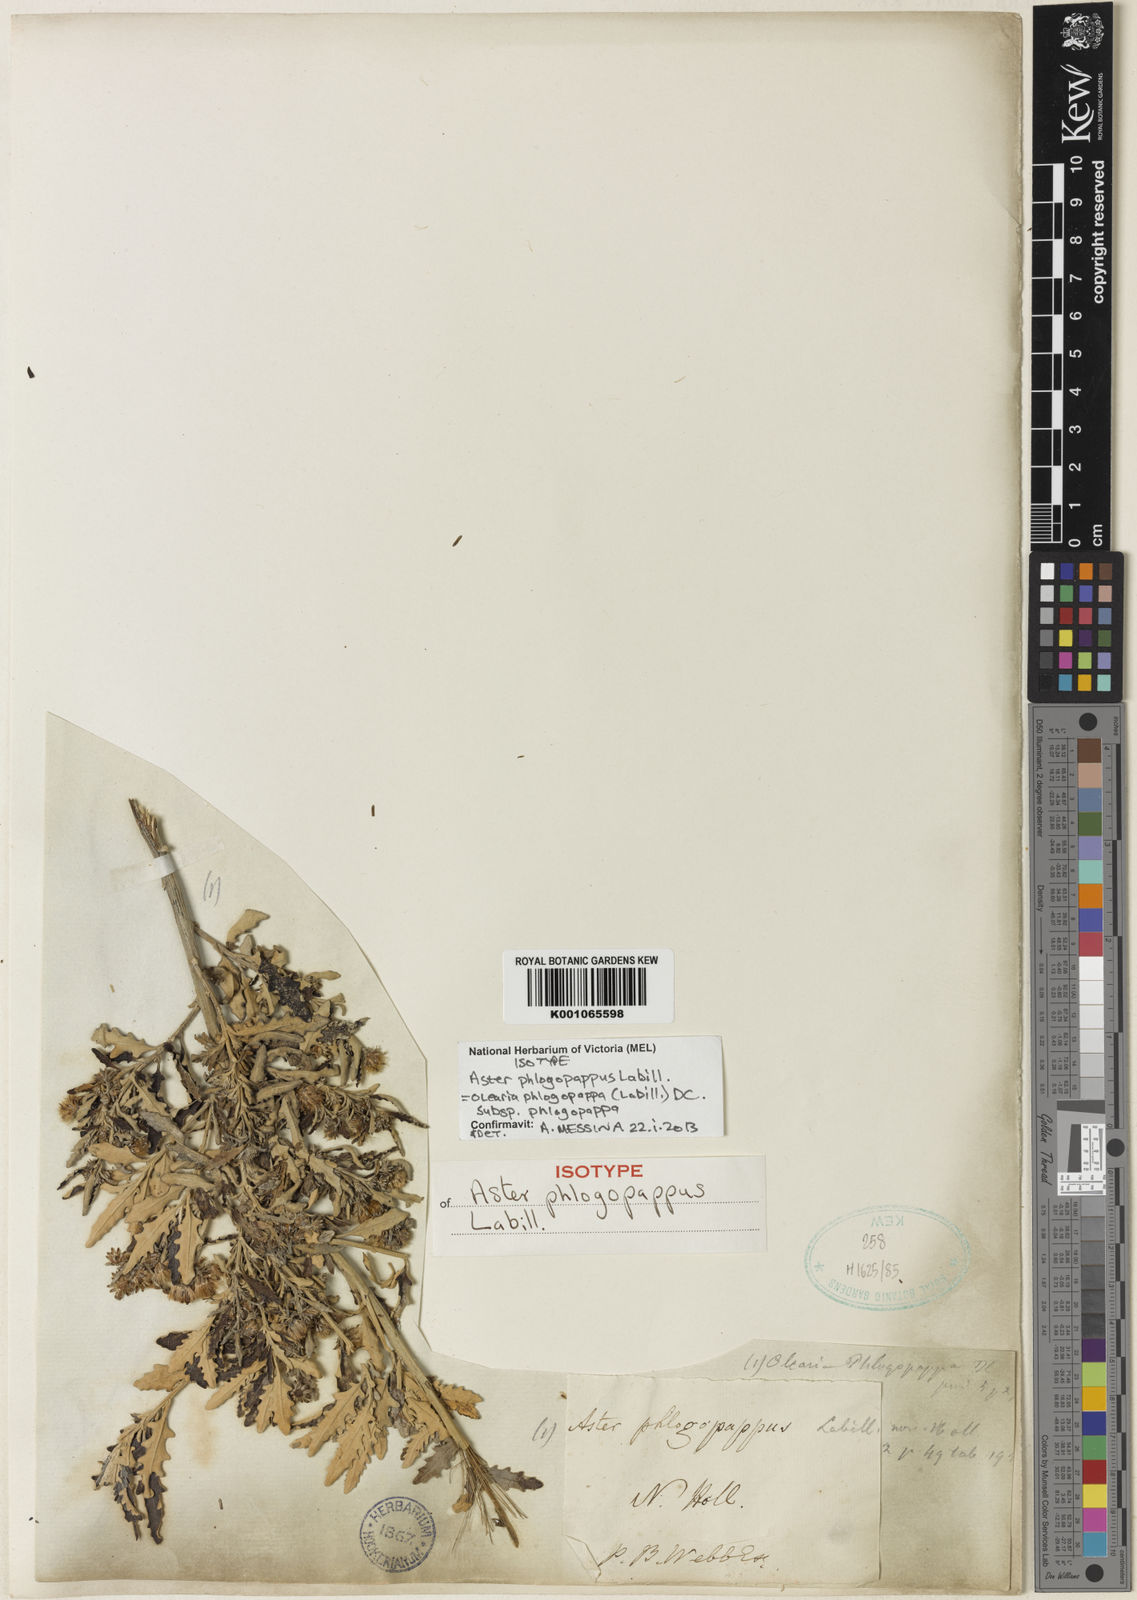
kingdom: Plantae
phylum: Tracheophyta
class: Magnoliopsida
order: Asterales
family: Asteraceae
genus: Olearia
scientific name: Olearia phlogopappa
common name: Alpine daisybush
